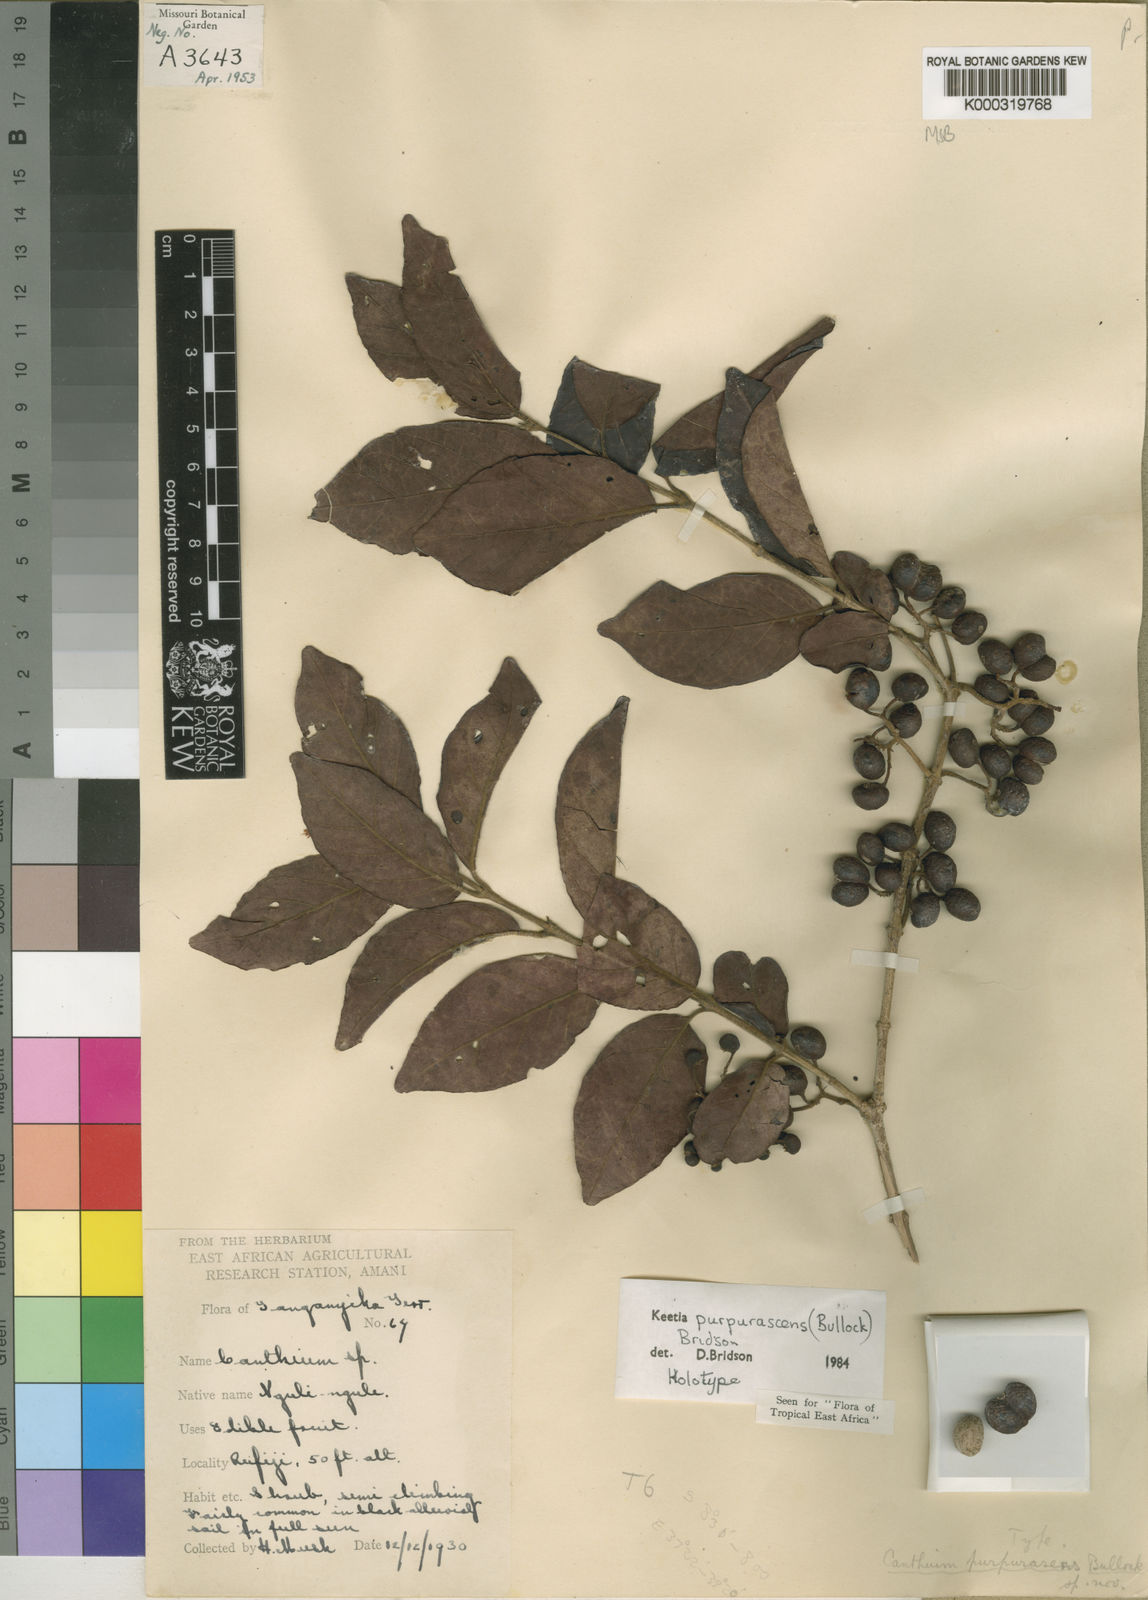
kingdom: Plantae
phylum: Tracheophyta
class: Magnoliopsida
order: Gentianales
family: Rubiaceae
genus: Keetia
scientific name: Keetia purpurascens
